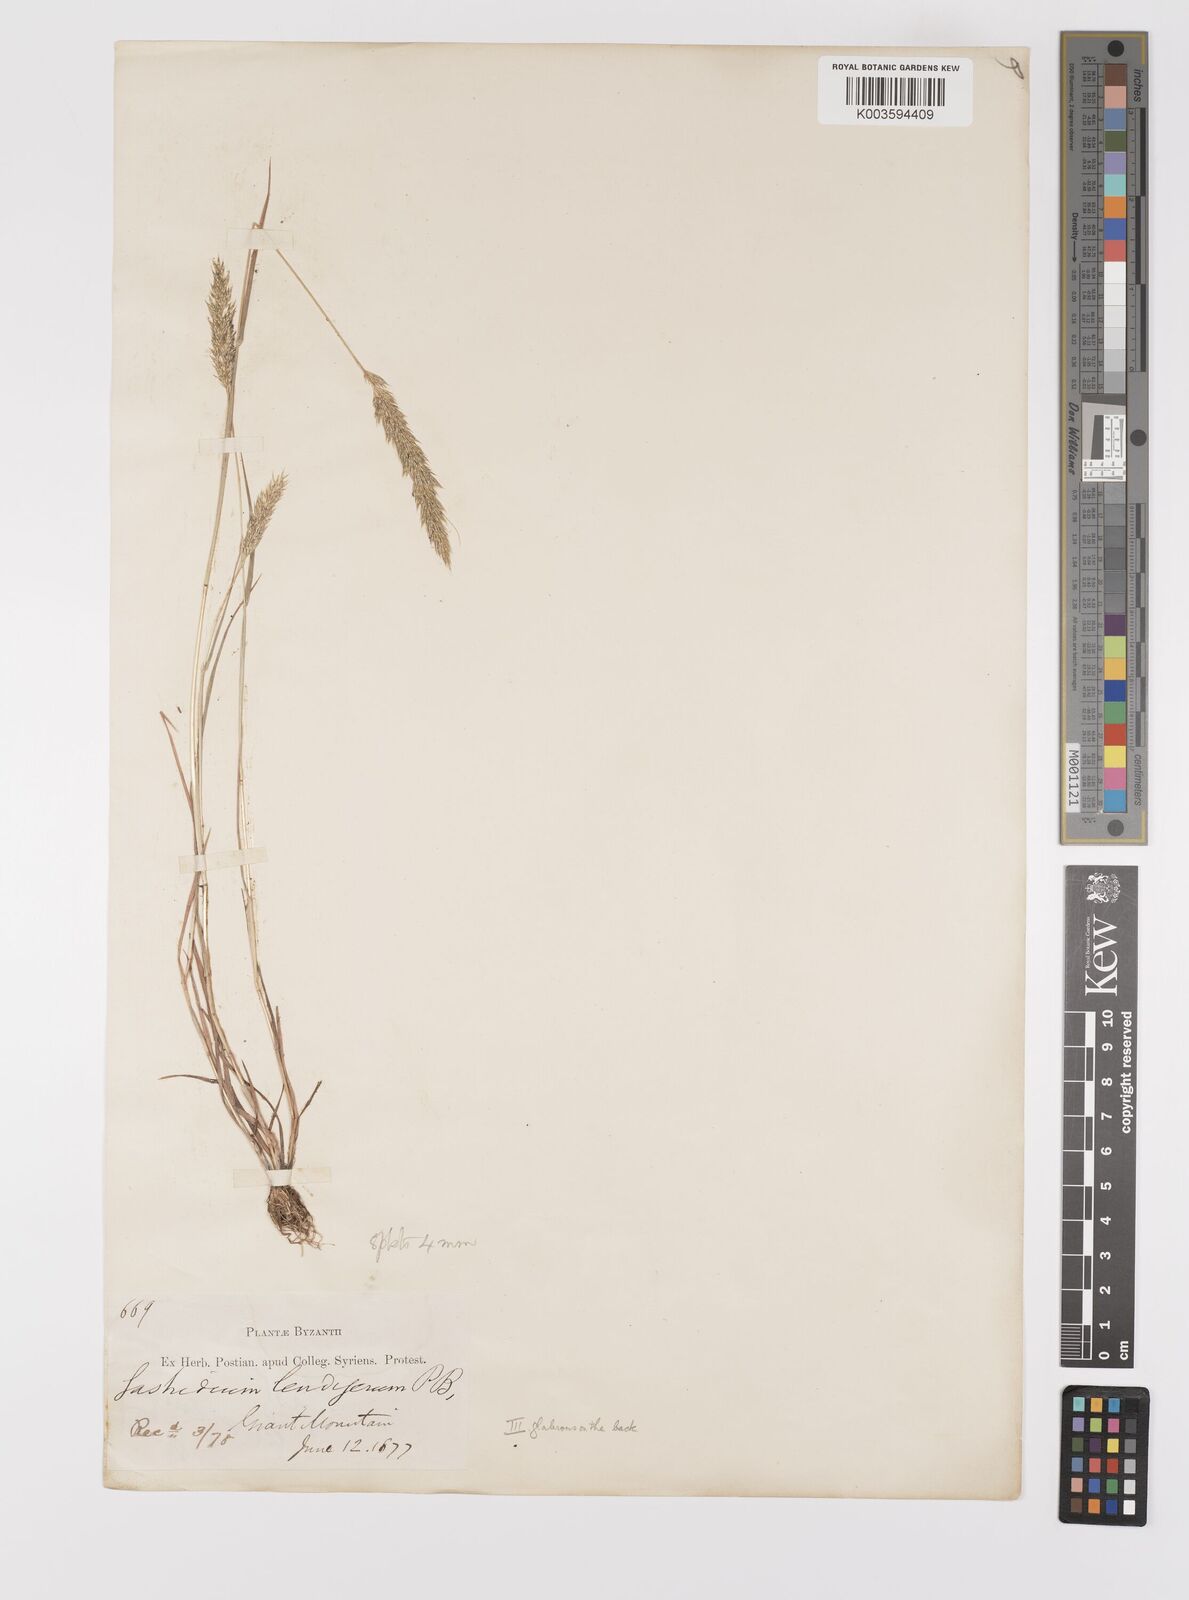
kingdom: Plantae
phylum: Tracheophyta
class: Liliopsida
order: Poales
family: Poaceae
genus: Gastridium
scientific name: Gastridium phleoides
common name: Nit grass
